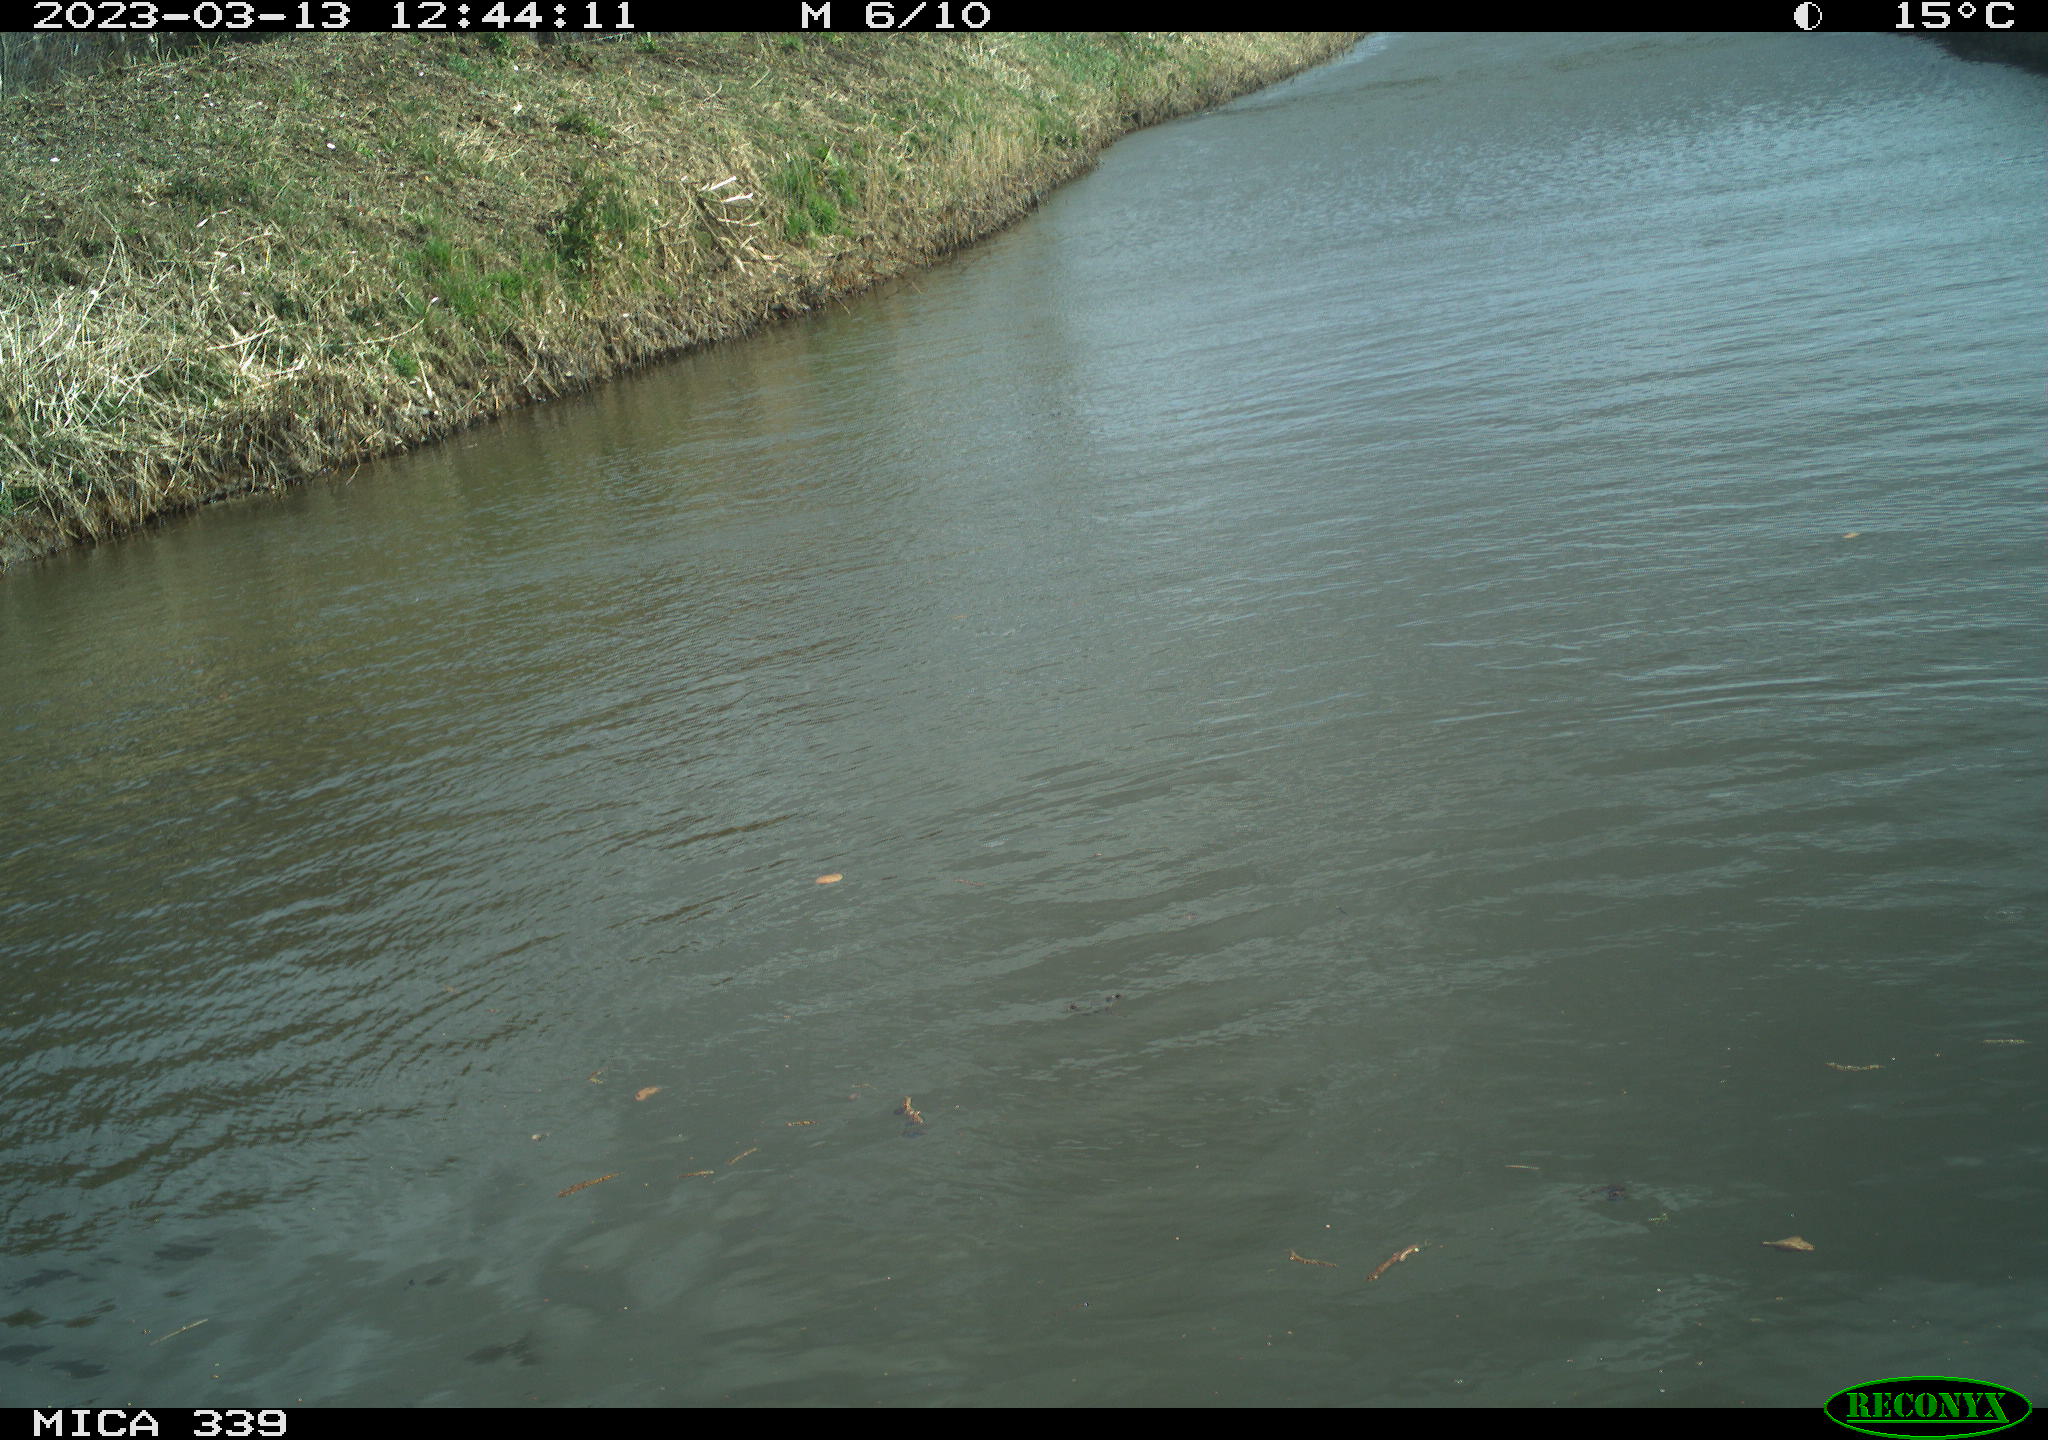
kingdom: Animalia
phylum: Chordata
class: Aves
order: Gruiformes
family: Rallidae
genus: Gallinula
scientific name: Gallinula chloropus
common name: Common moorhen
